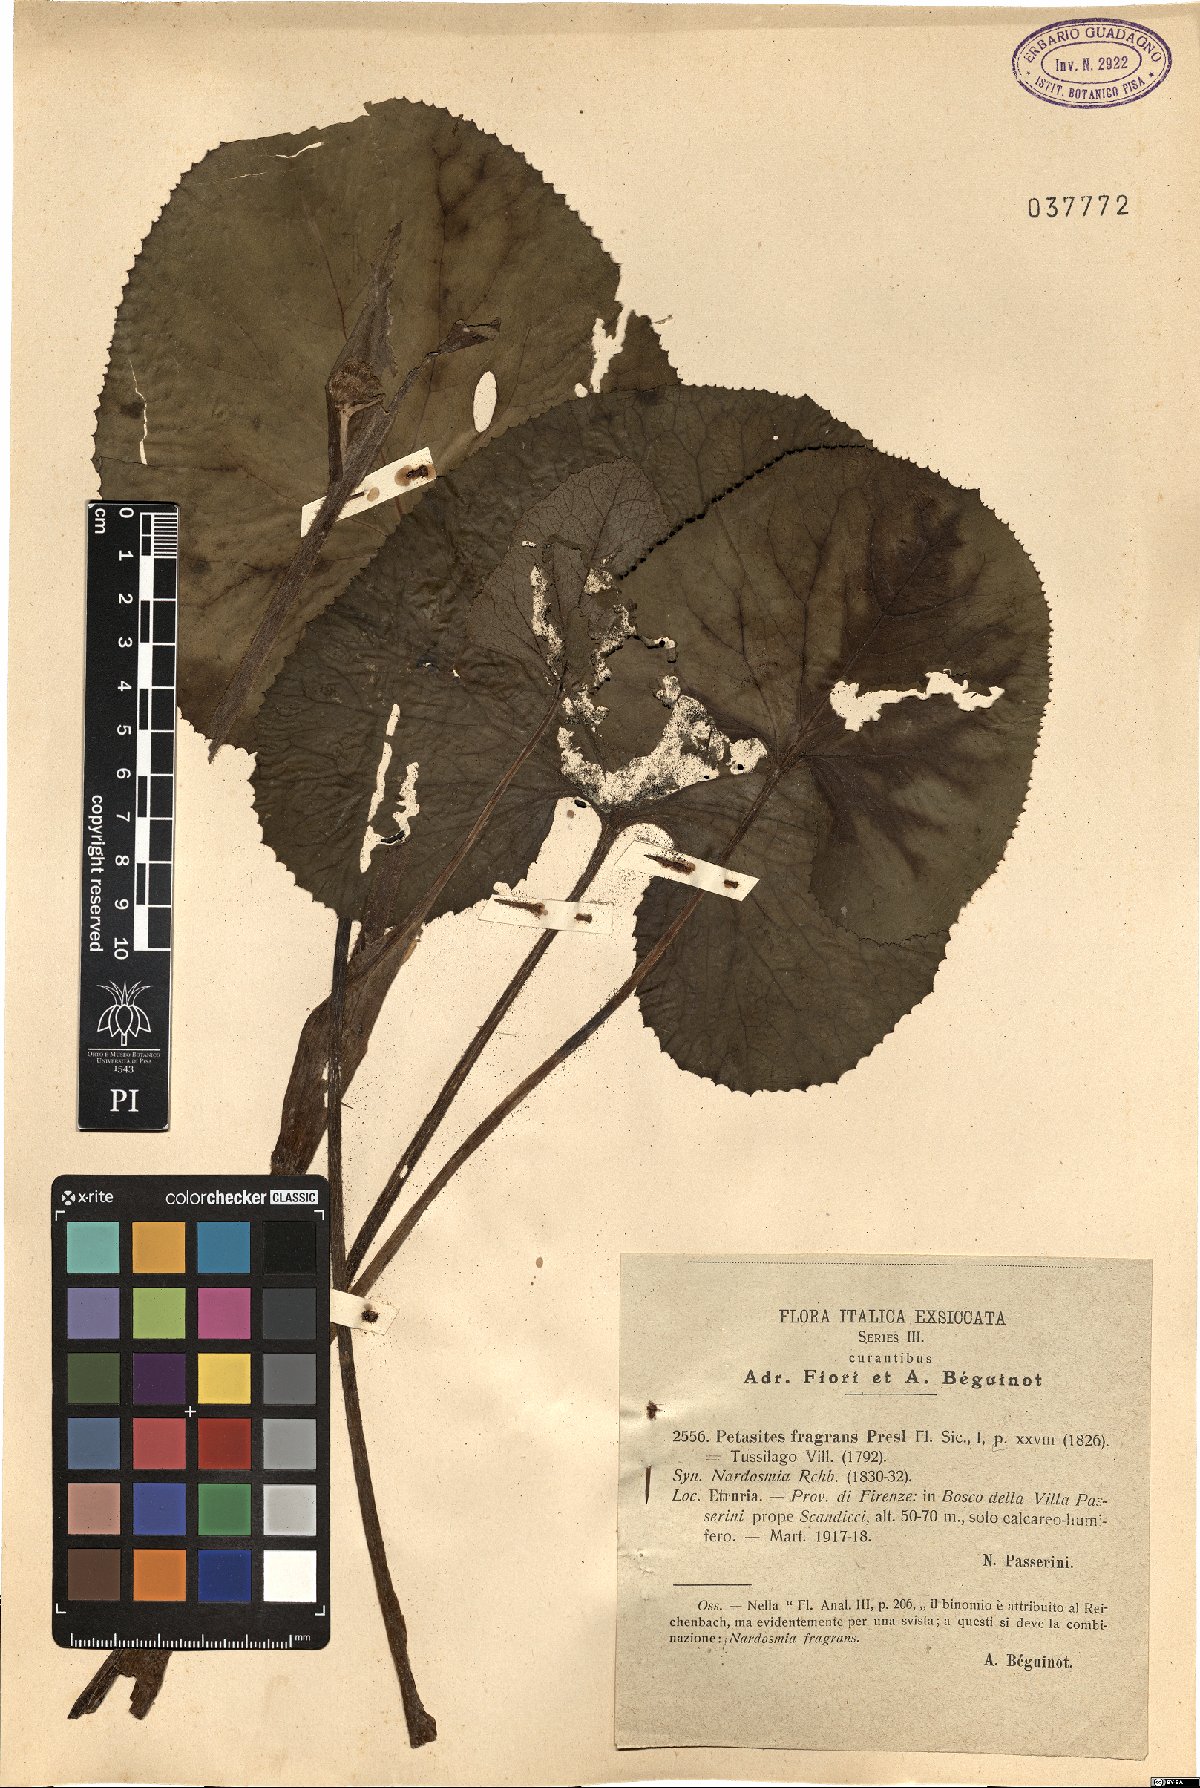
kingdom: Plantae
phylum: Tracheophyta
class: Magnoliopsida
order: Asterales
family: Asteraceae
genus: Petasites
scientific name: Petasites pyrenaicus
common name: Winter heliotrope
